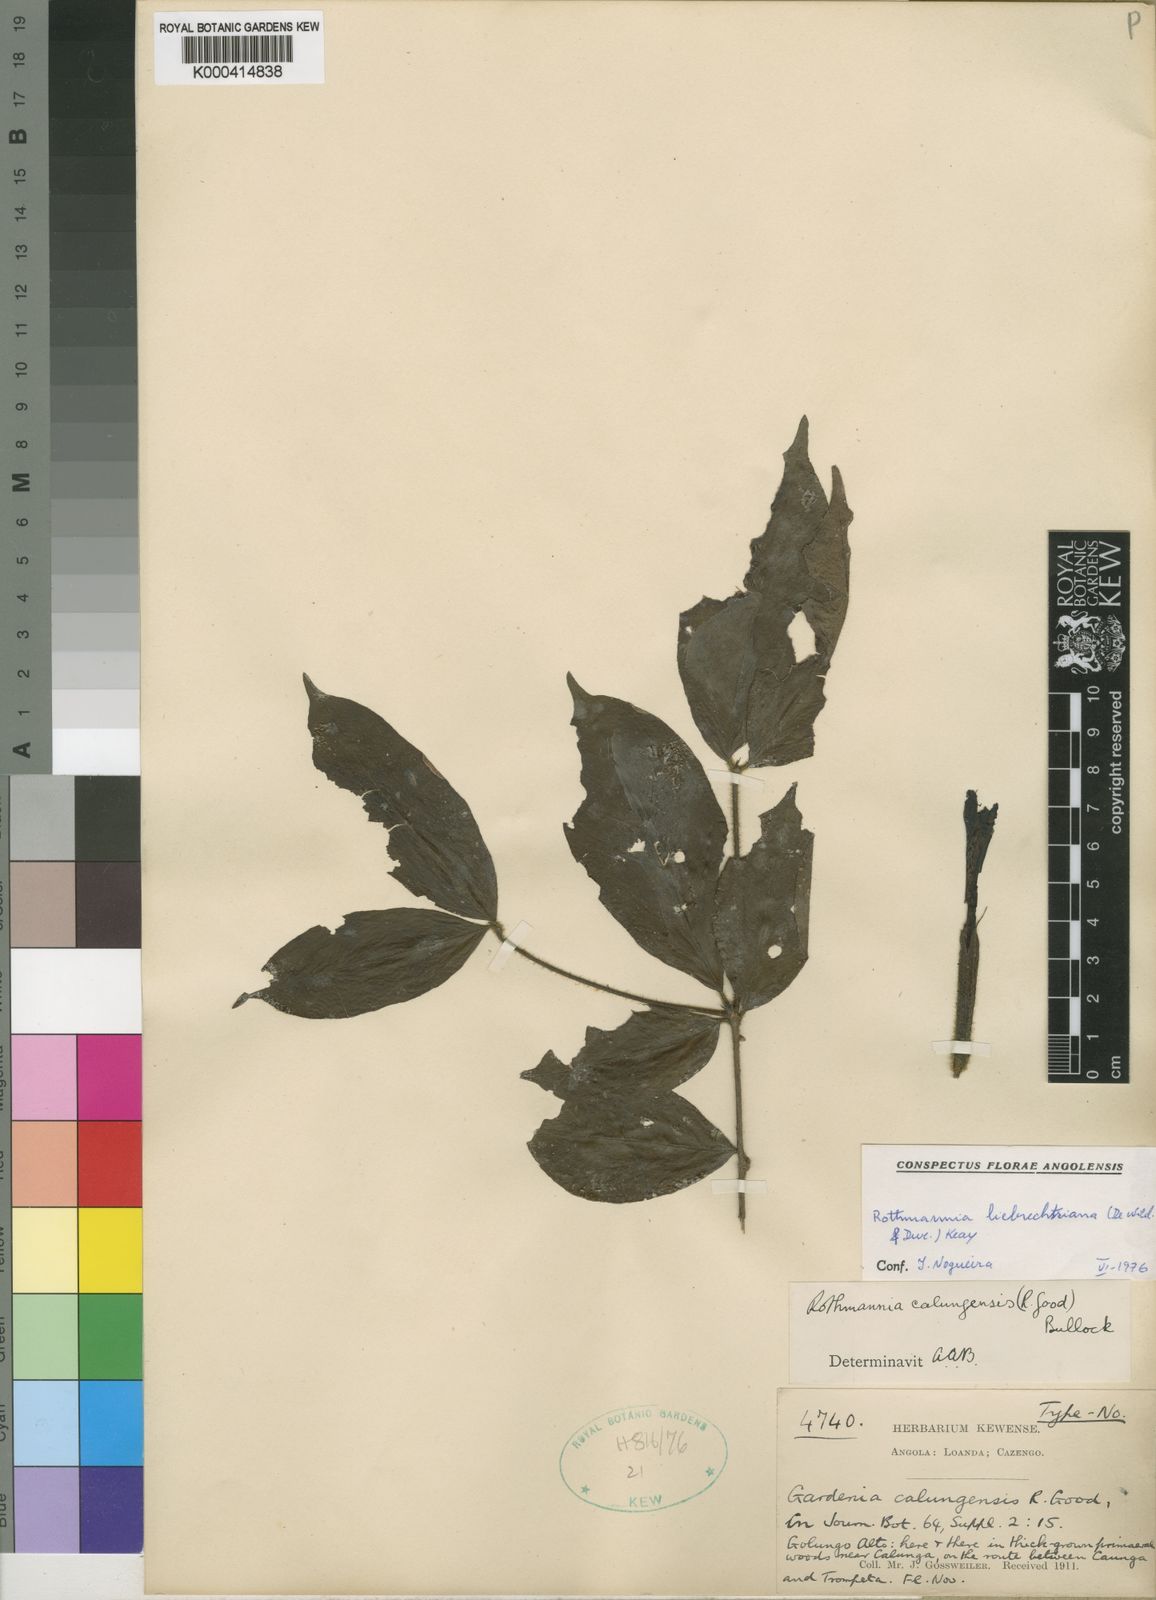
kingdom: Plantae
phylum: Tracheophyta
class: Magnoliopsida
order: Gentianales
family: Rubiaceae
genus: Rothmannia
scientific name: Rothmannia liebrechtsiana
